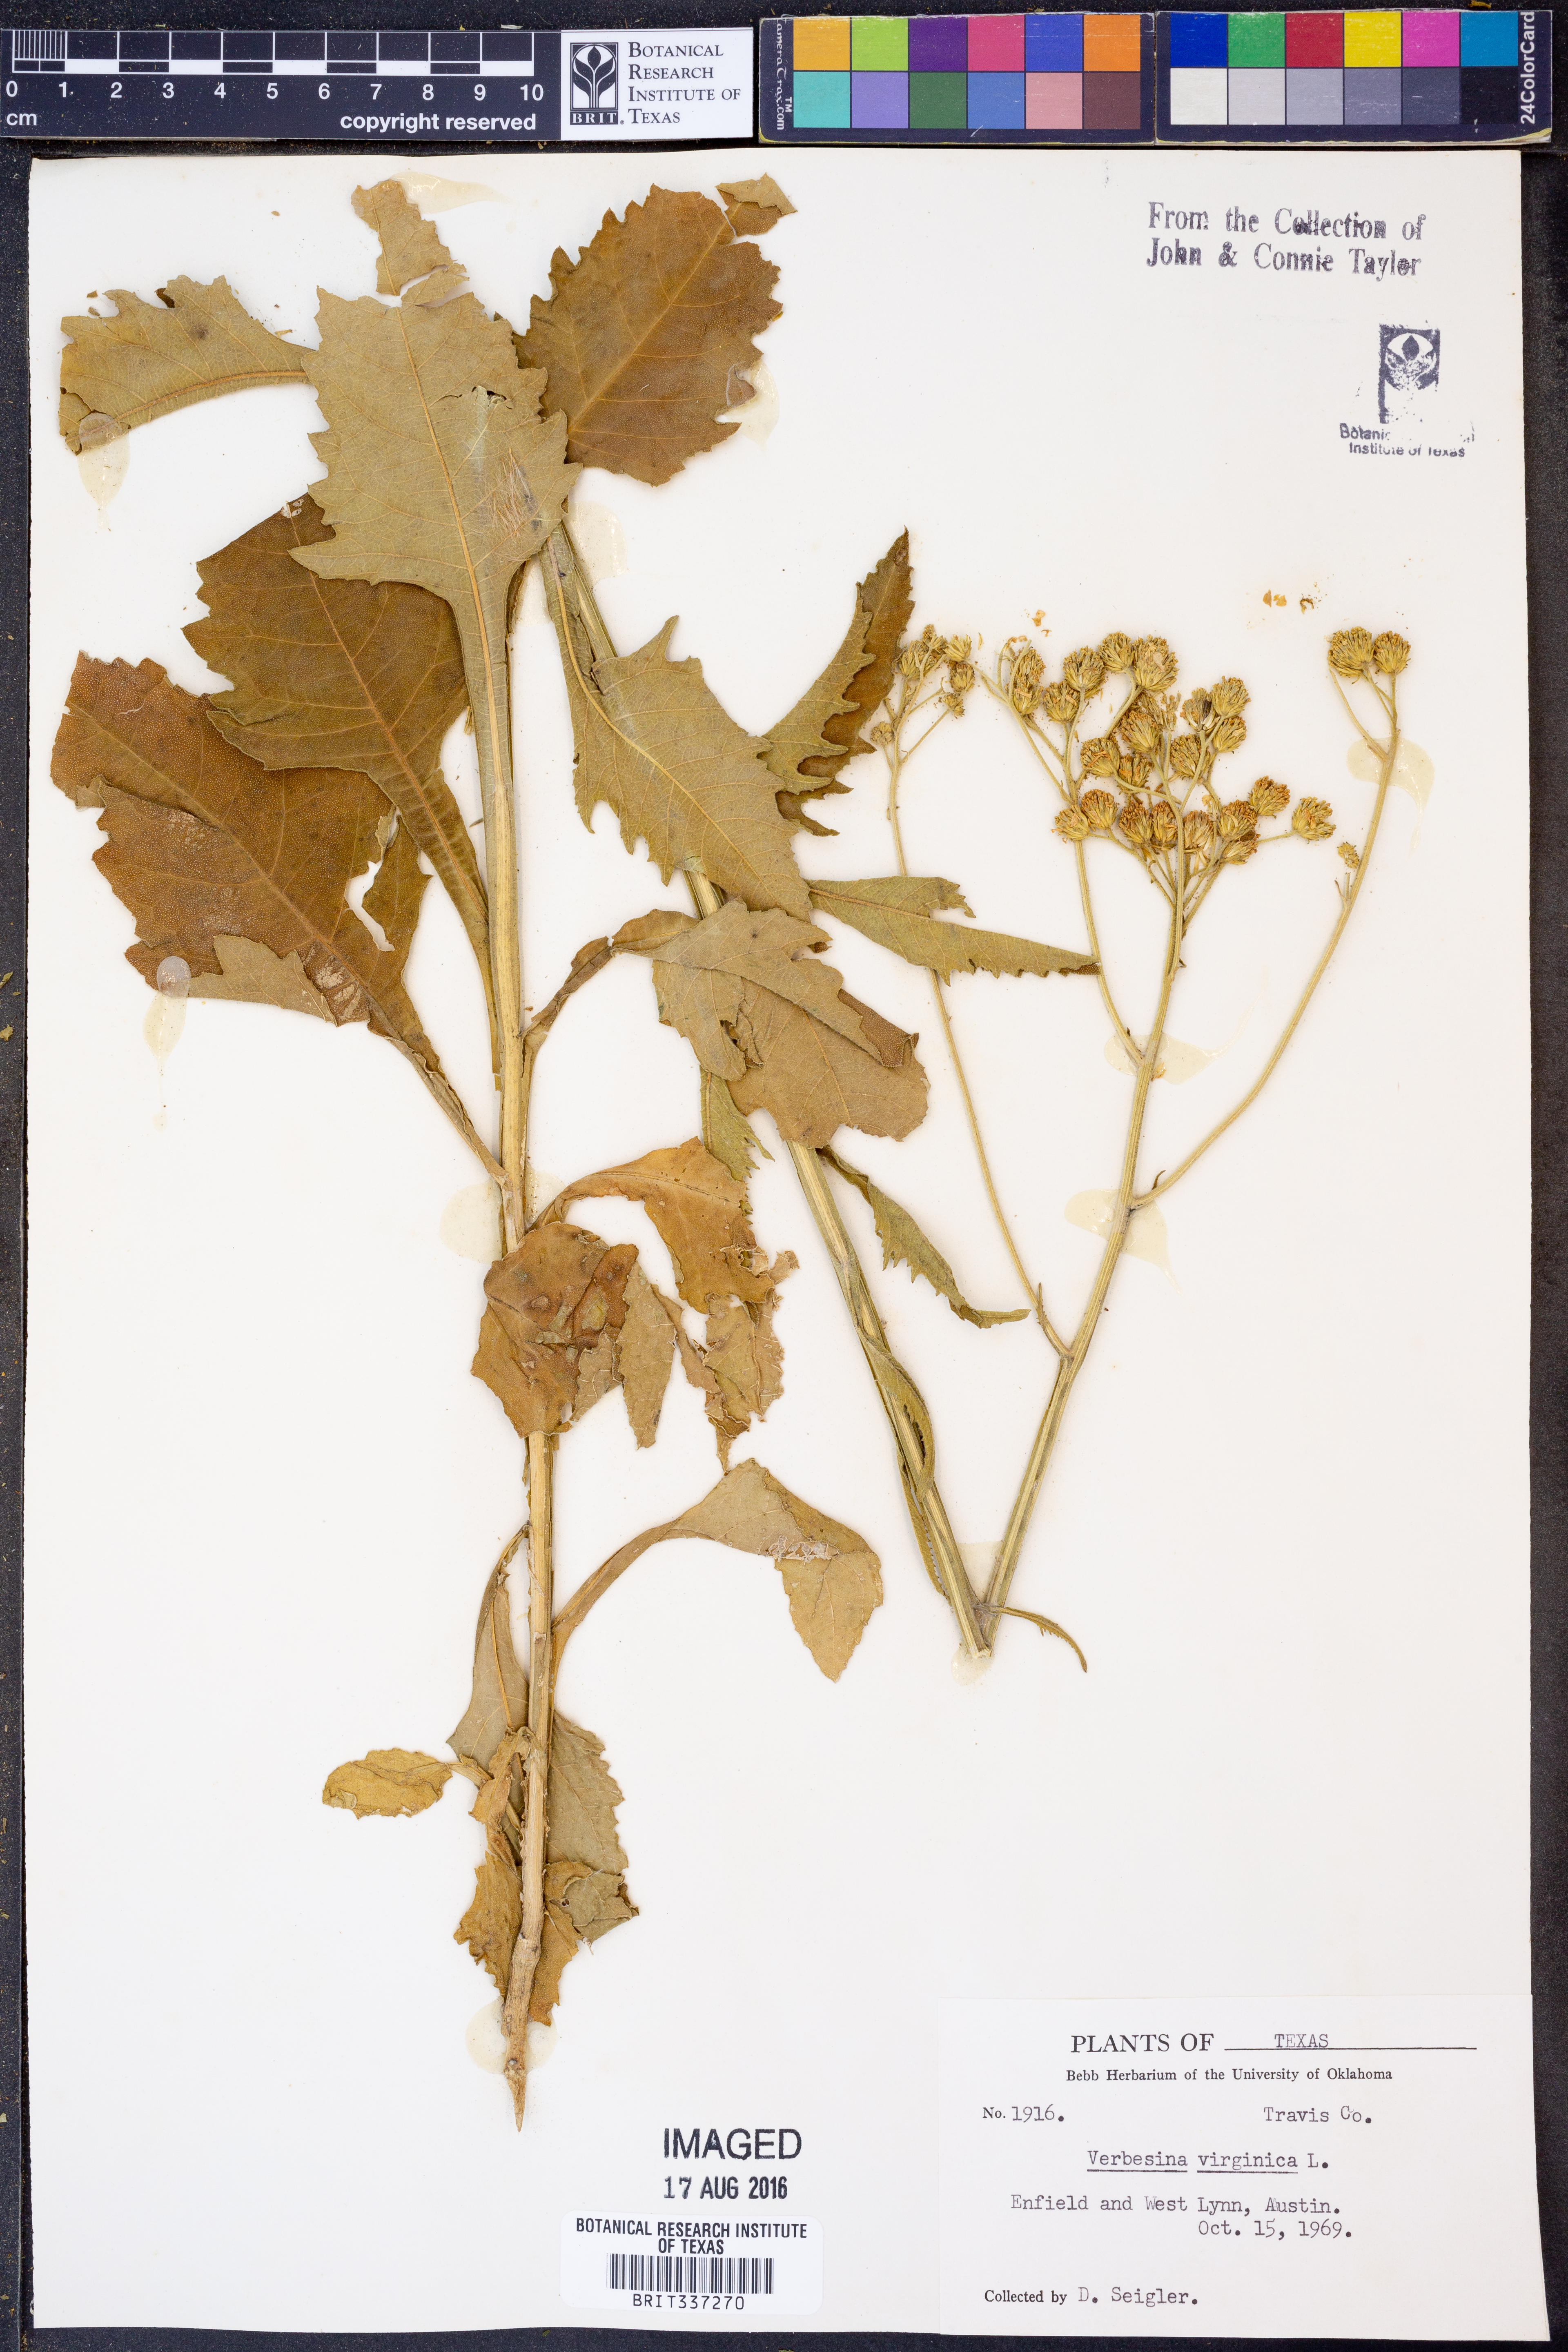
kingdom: Plantae
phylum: Tracheophyta
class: Magnoliopsida
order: Asterales
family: Asteraceae
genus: Verbesina
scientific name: Verbesina virginica
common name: Frostweed
